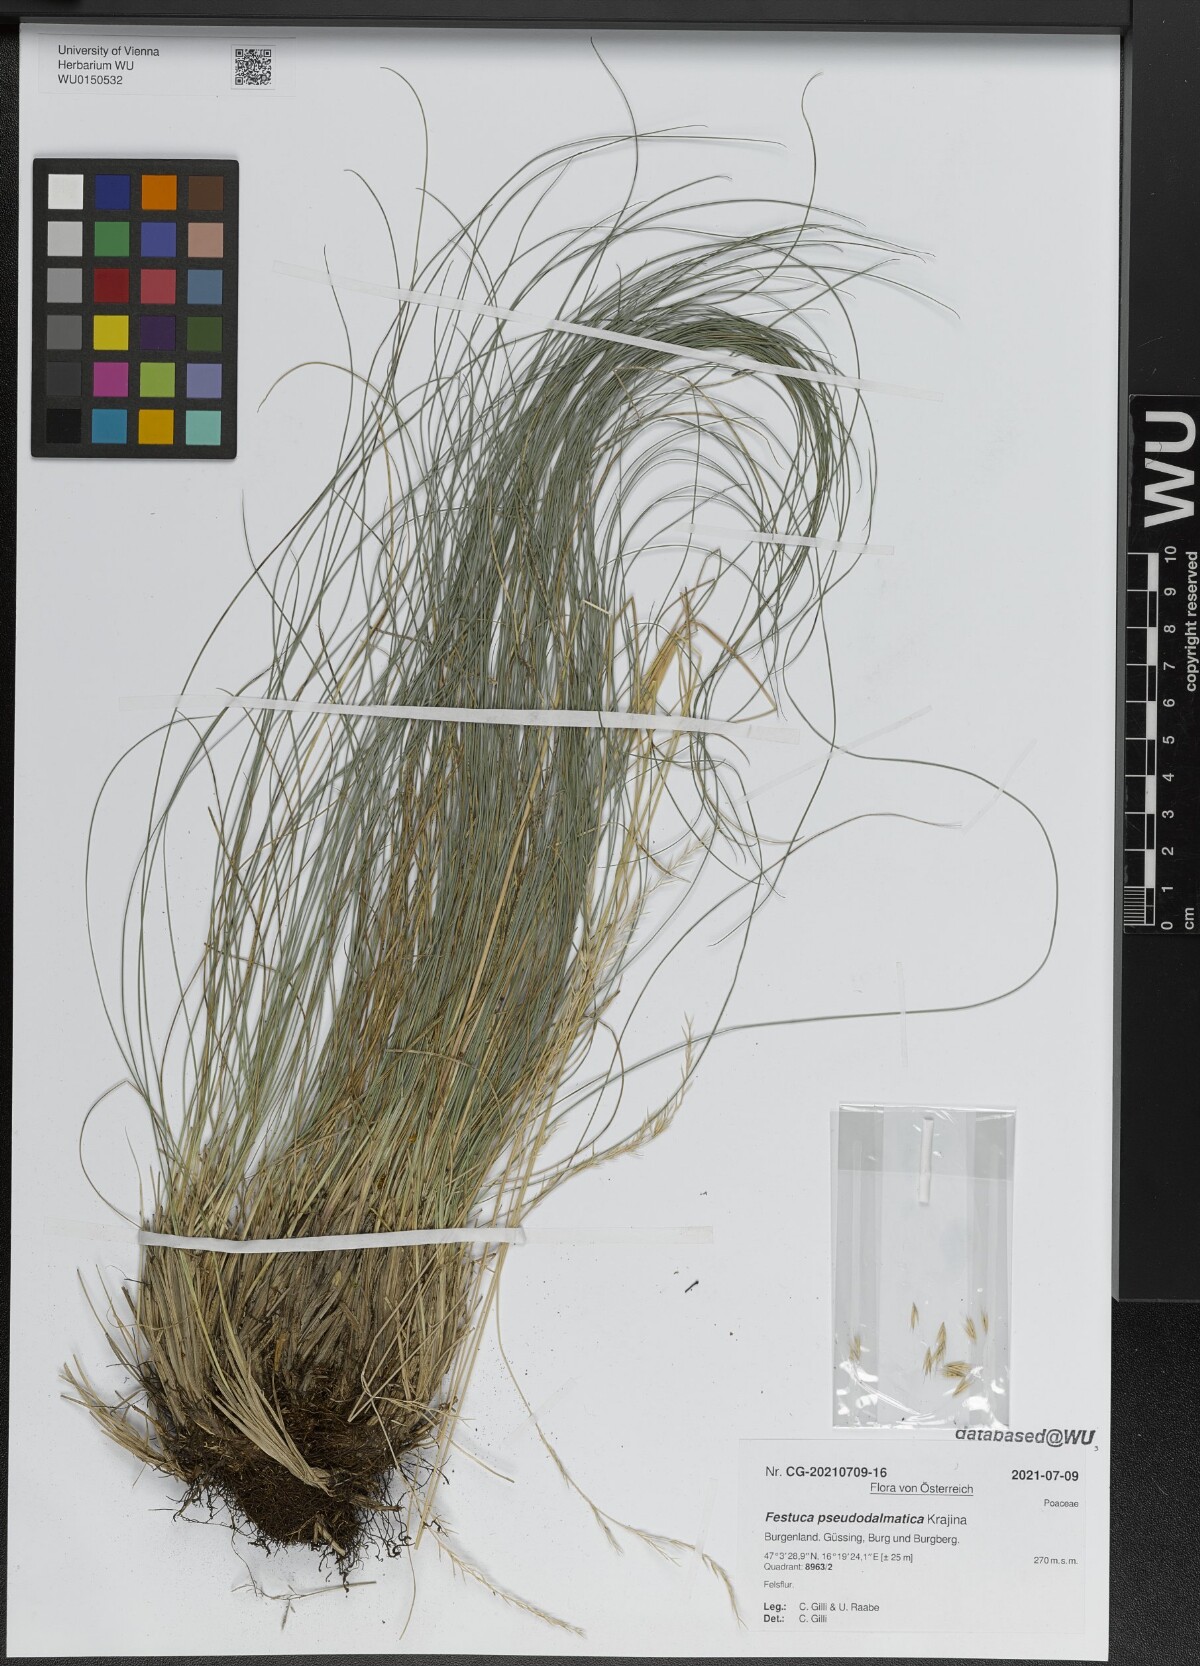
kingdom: Plantae
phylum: Tracheophyta
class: Liliopsida
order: Poales
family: Poaceae
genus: Festuca
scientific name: Festuca pseudodalmatica
